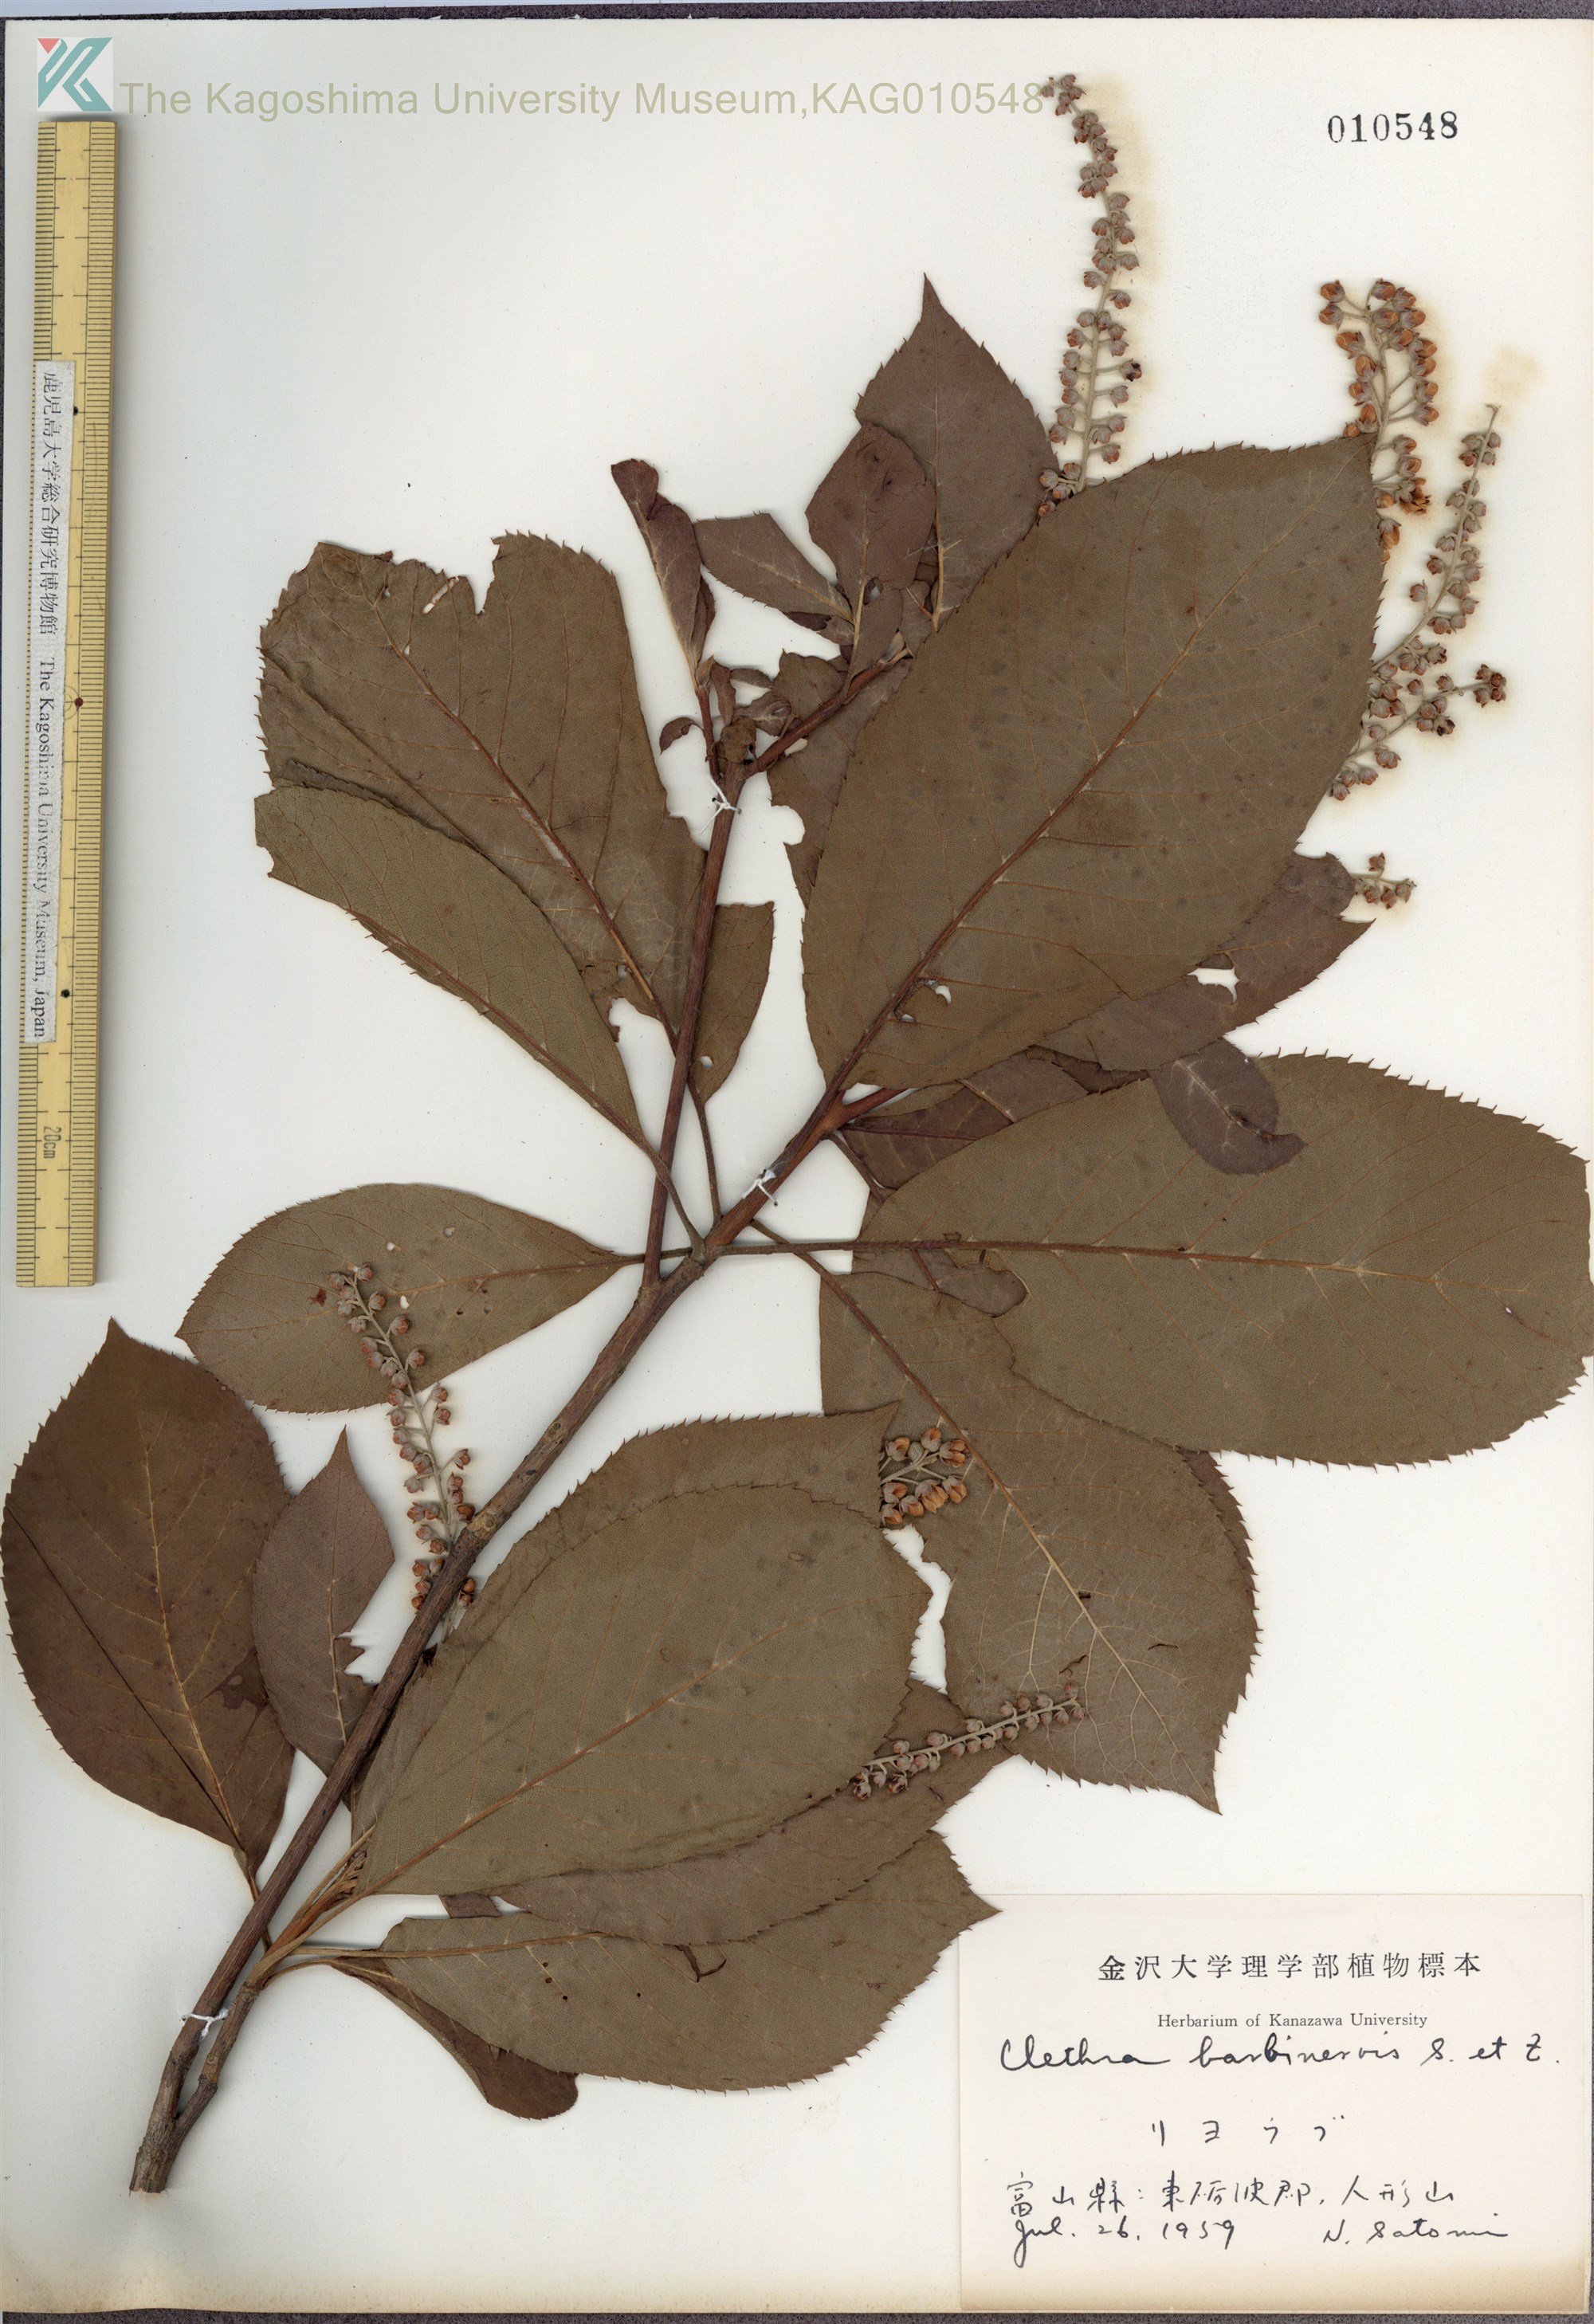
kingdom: Plantae
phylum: Tracheophyta
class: Magnoliopsida
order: Ericales
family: Clethraceae
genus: Clethra
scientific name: Clethra barbinervis
